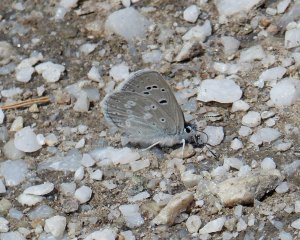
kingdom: Animalia
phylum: Arthropoda
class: Insecta
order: Lepidoptera
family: Lycaenidae
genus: Icaricia
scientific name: Icaricia icarioides
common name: Boisduval's Blue
